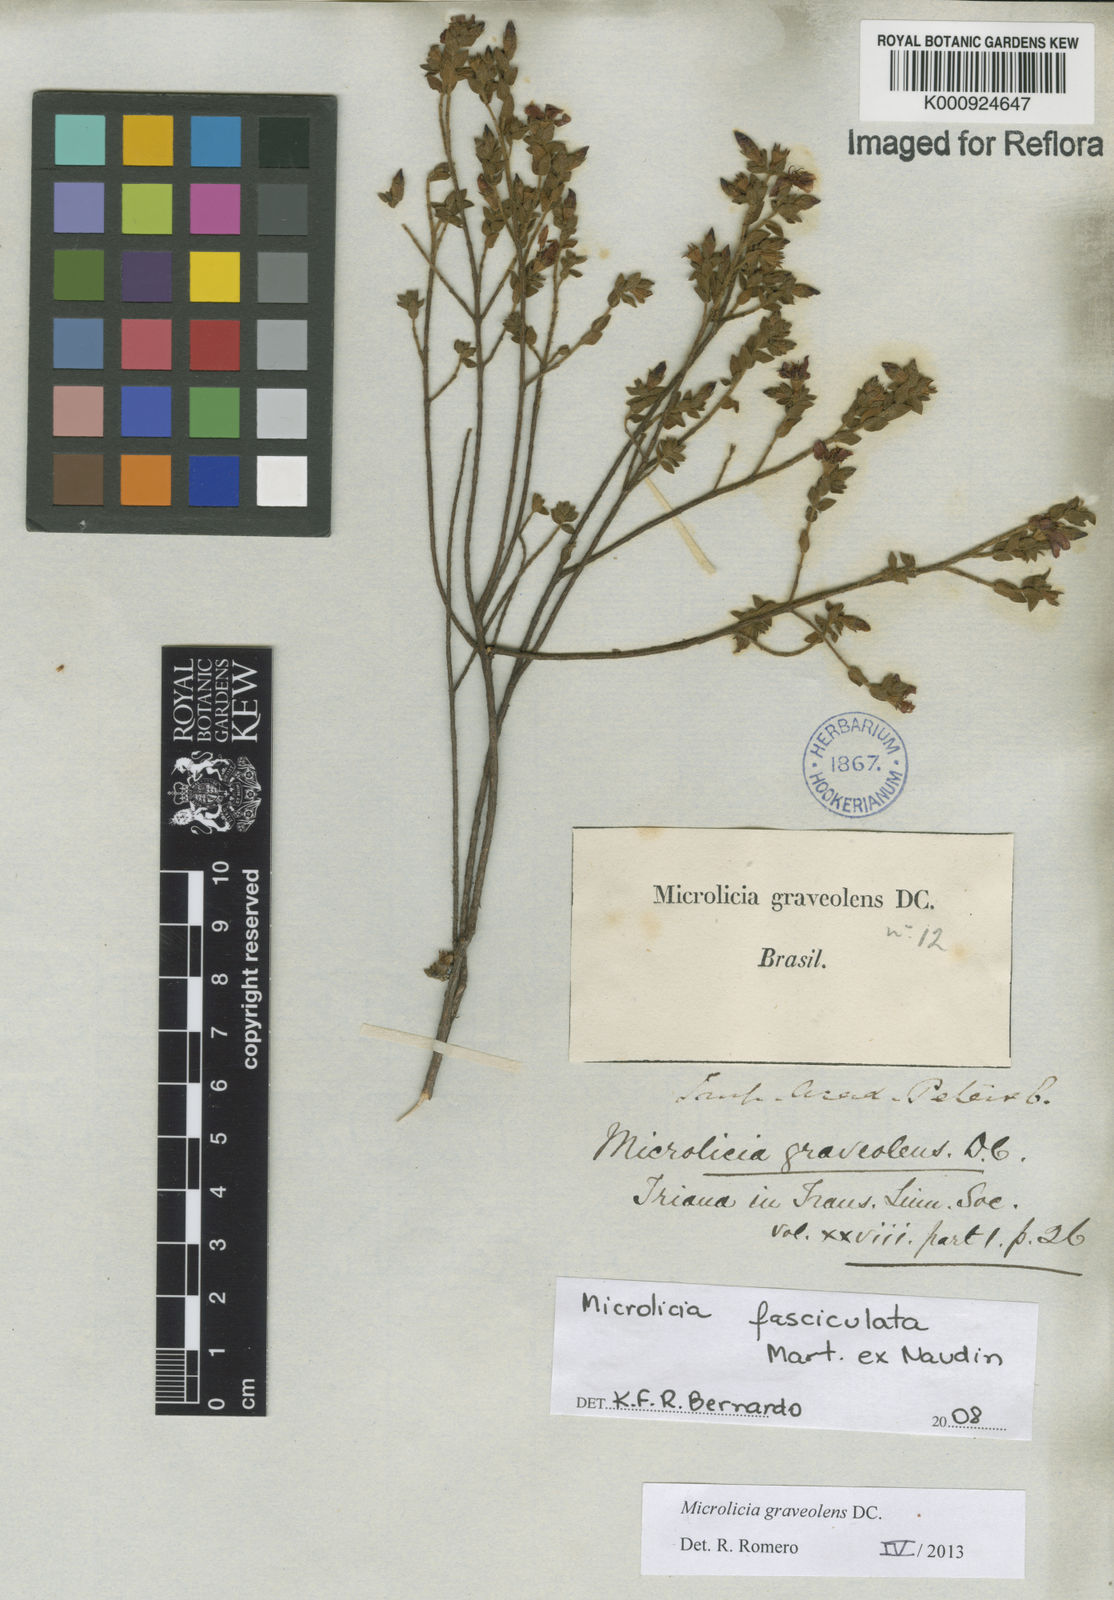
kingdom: Plantae
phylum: Tracheophyta
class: Magnoliopsida
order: Myrtales
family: Melastomataceae
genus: Microlicia
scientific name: Microlicia graveolens
